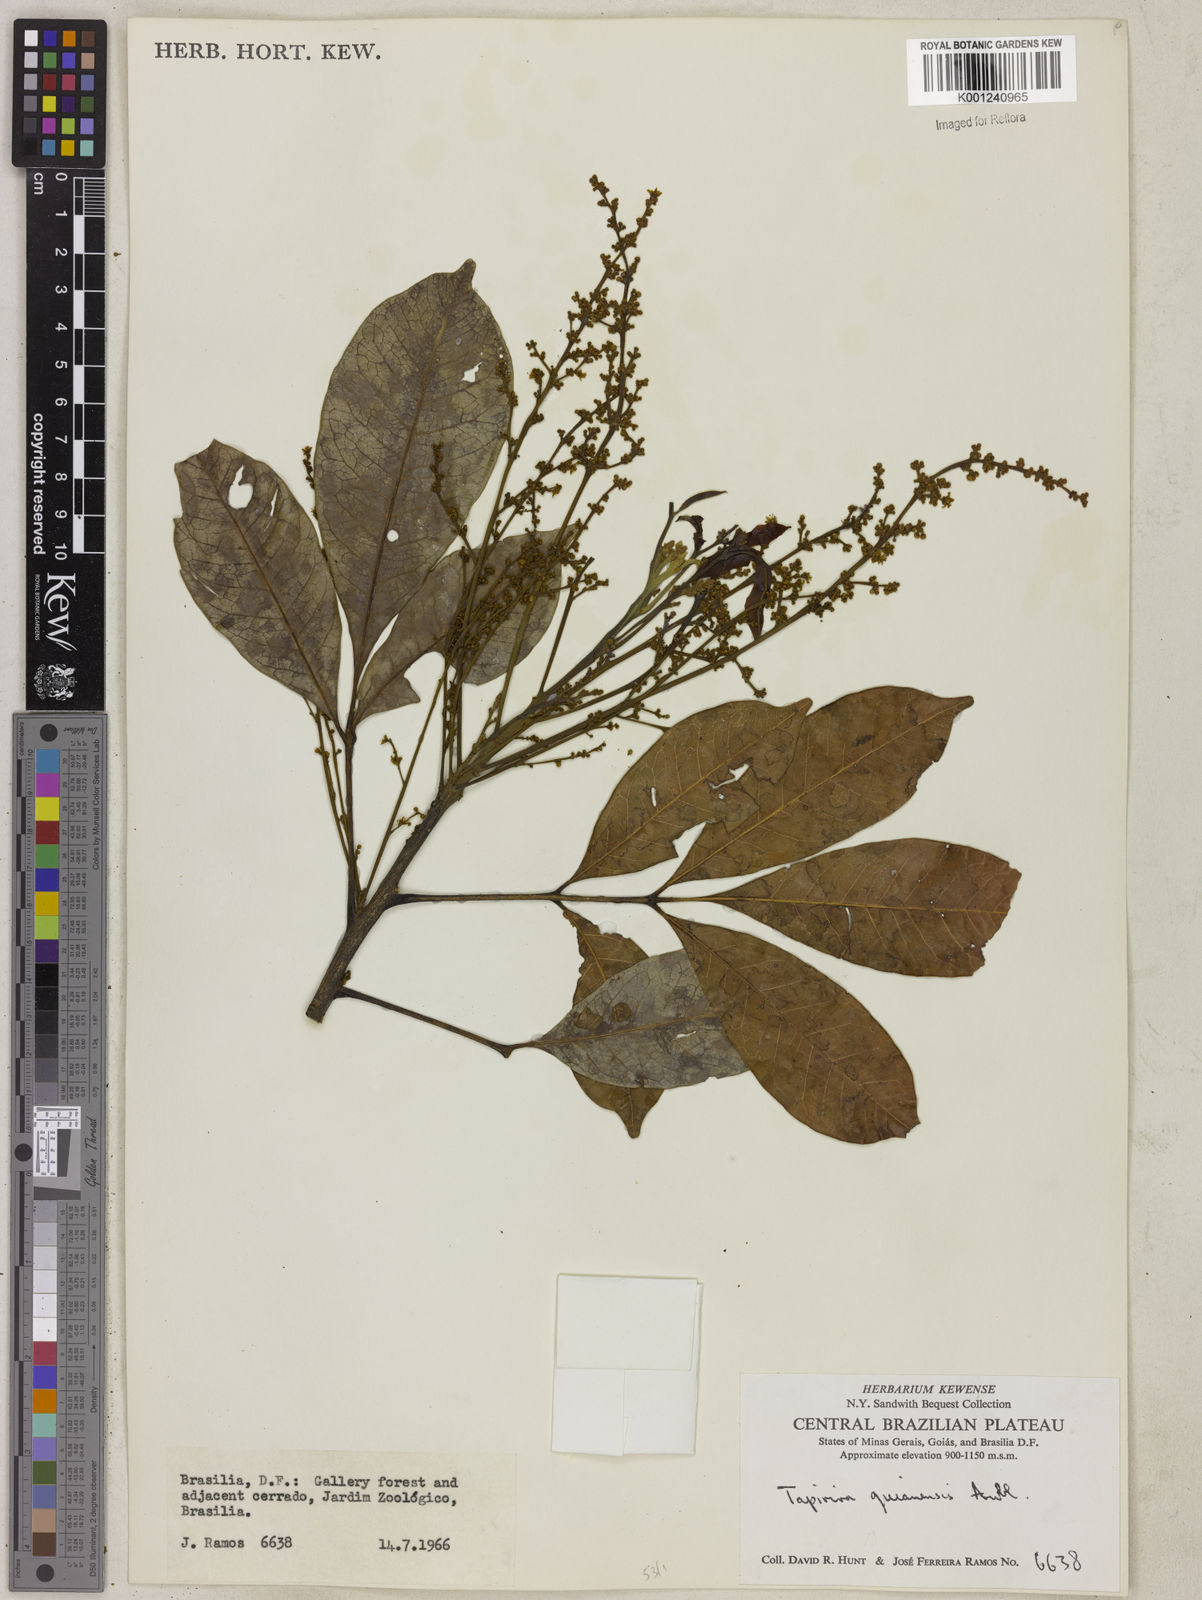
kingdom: Plantae
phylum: Tracheophyta
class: Magnoliopsida
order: Sapindales
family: Anacardiaceae
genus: Tapirira
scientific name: Tapirira guianensis
